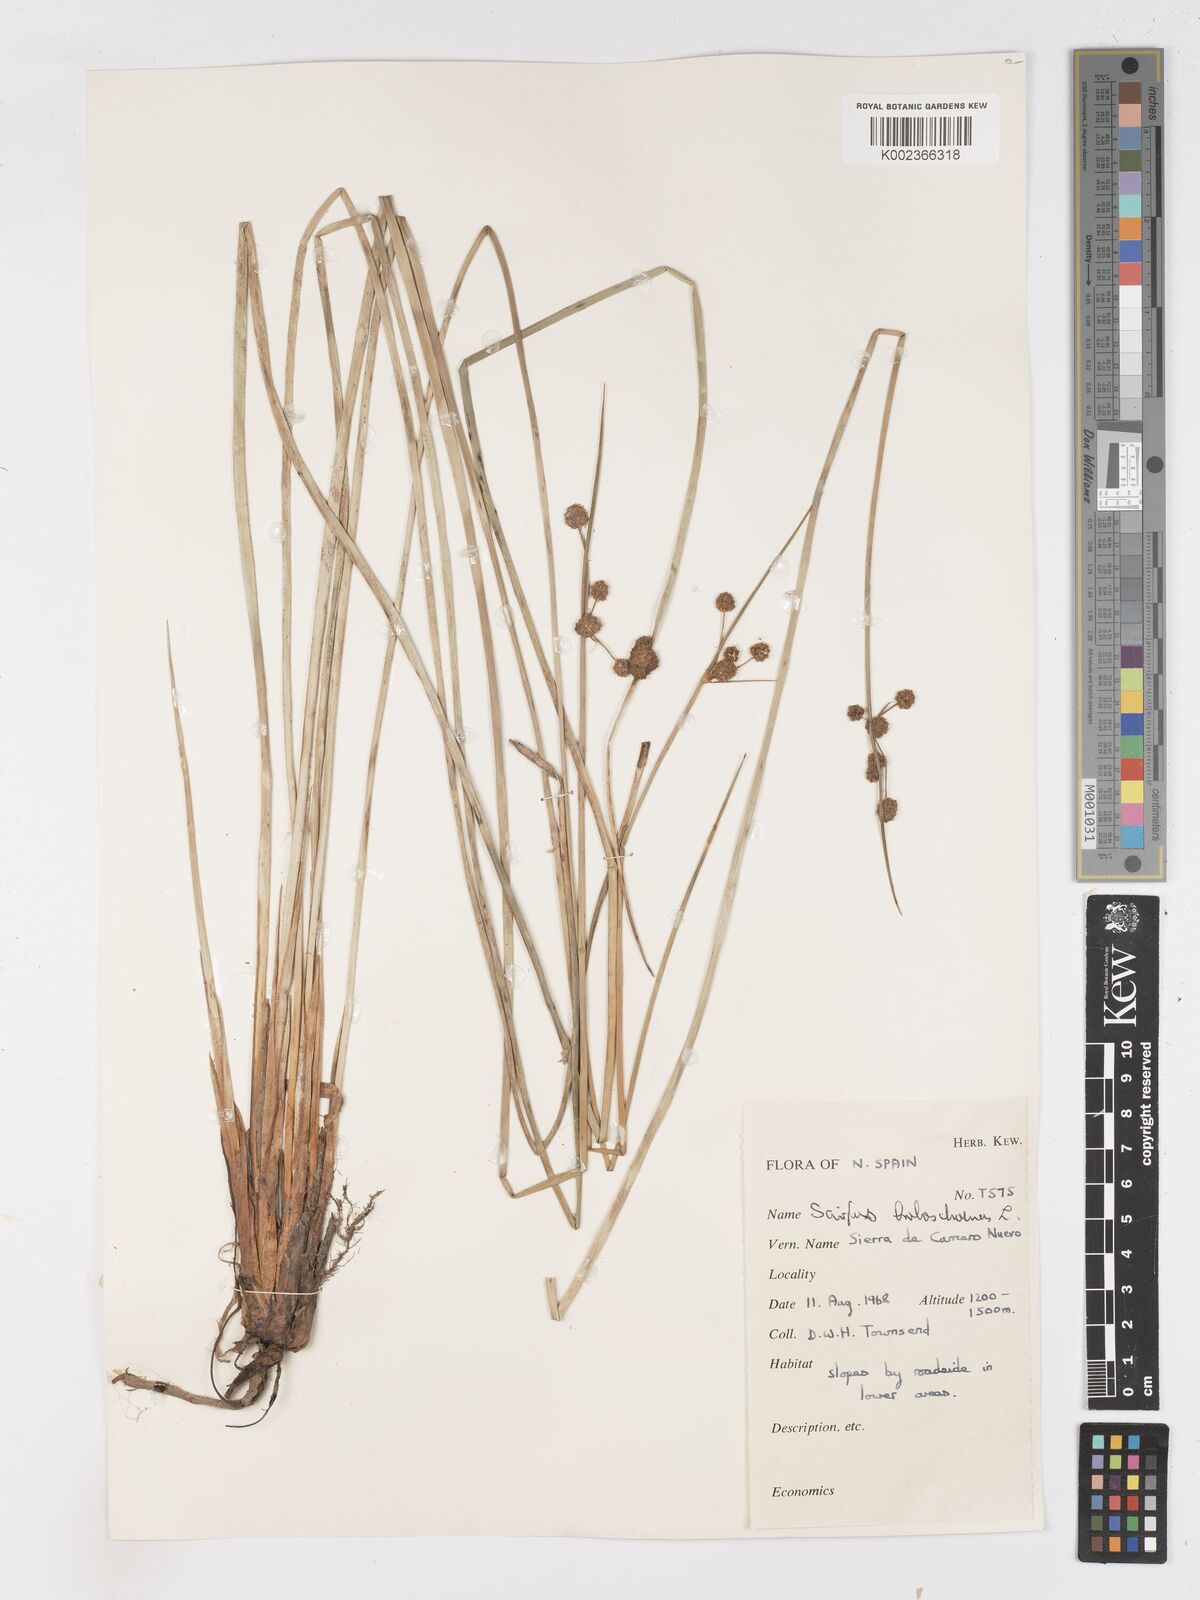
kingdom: Plantae
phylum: Tracheophyta
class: Liliopsida
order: Poales
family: Cyperaceae
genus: Scirpoides
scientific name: Scirpoides holoschoenus
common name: Round-headed club-rush
